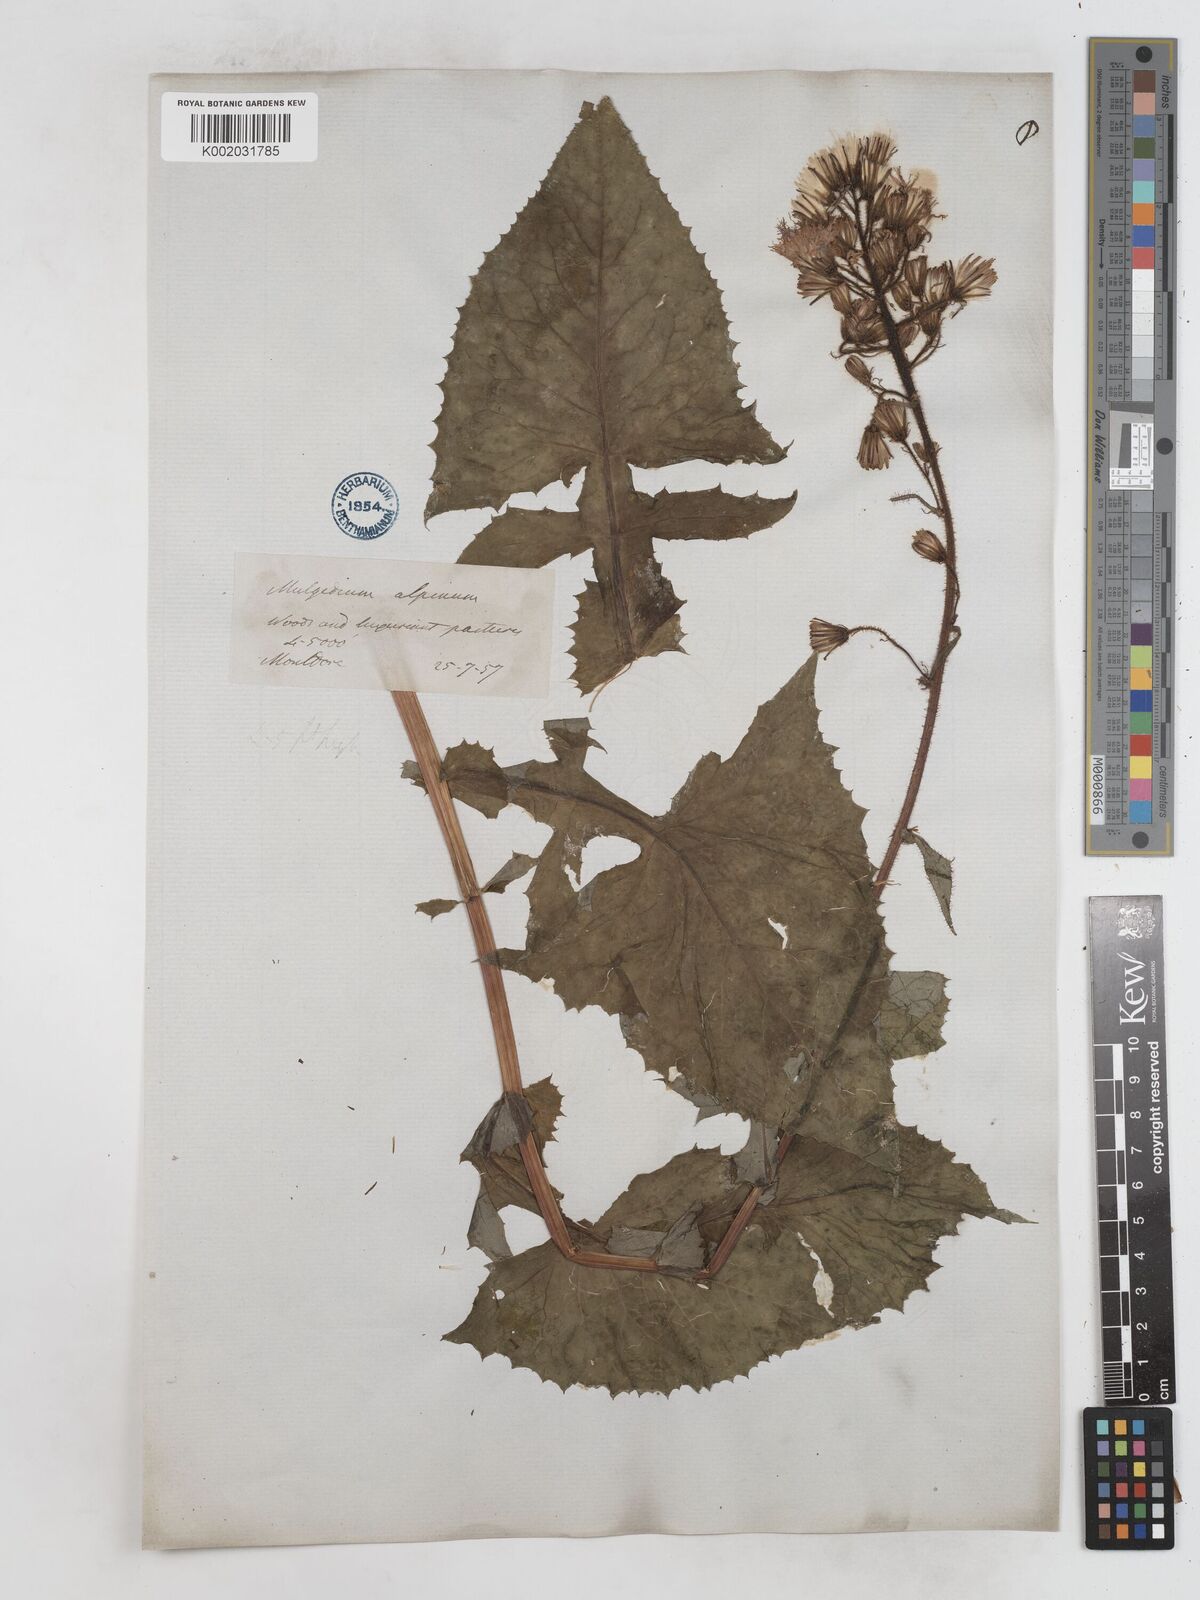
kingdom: Plantae
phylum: Tracheophyta
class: Magnoliopsida
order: Asterales
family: Asteraceae
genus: Cicerbita
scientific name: Cicerbita alpina
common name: Alpine blue-sow-thistle
